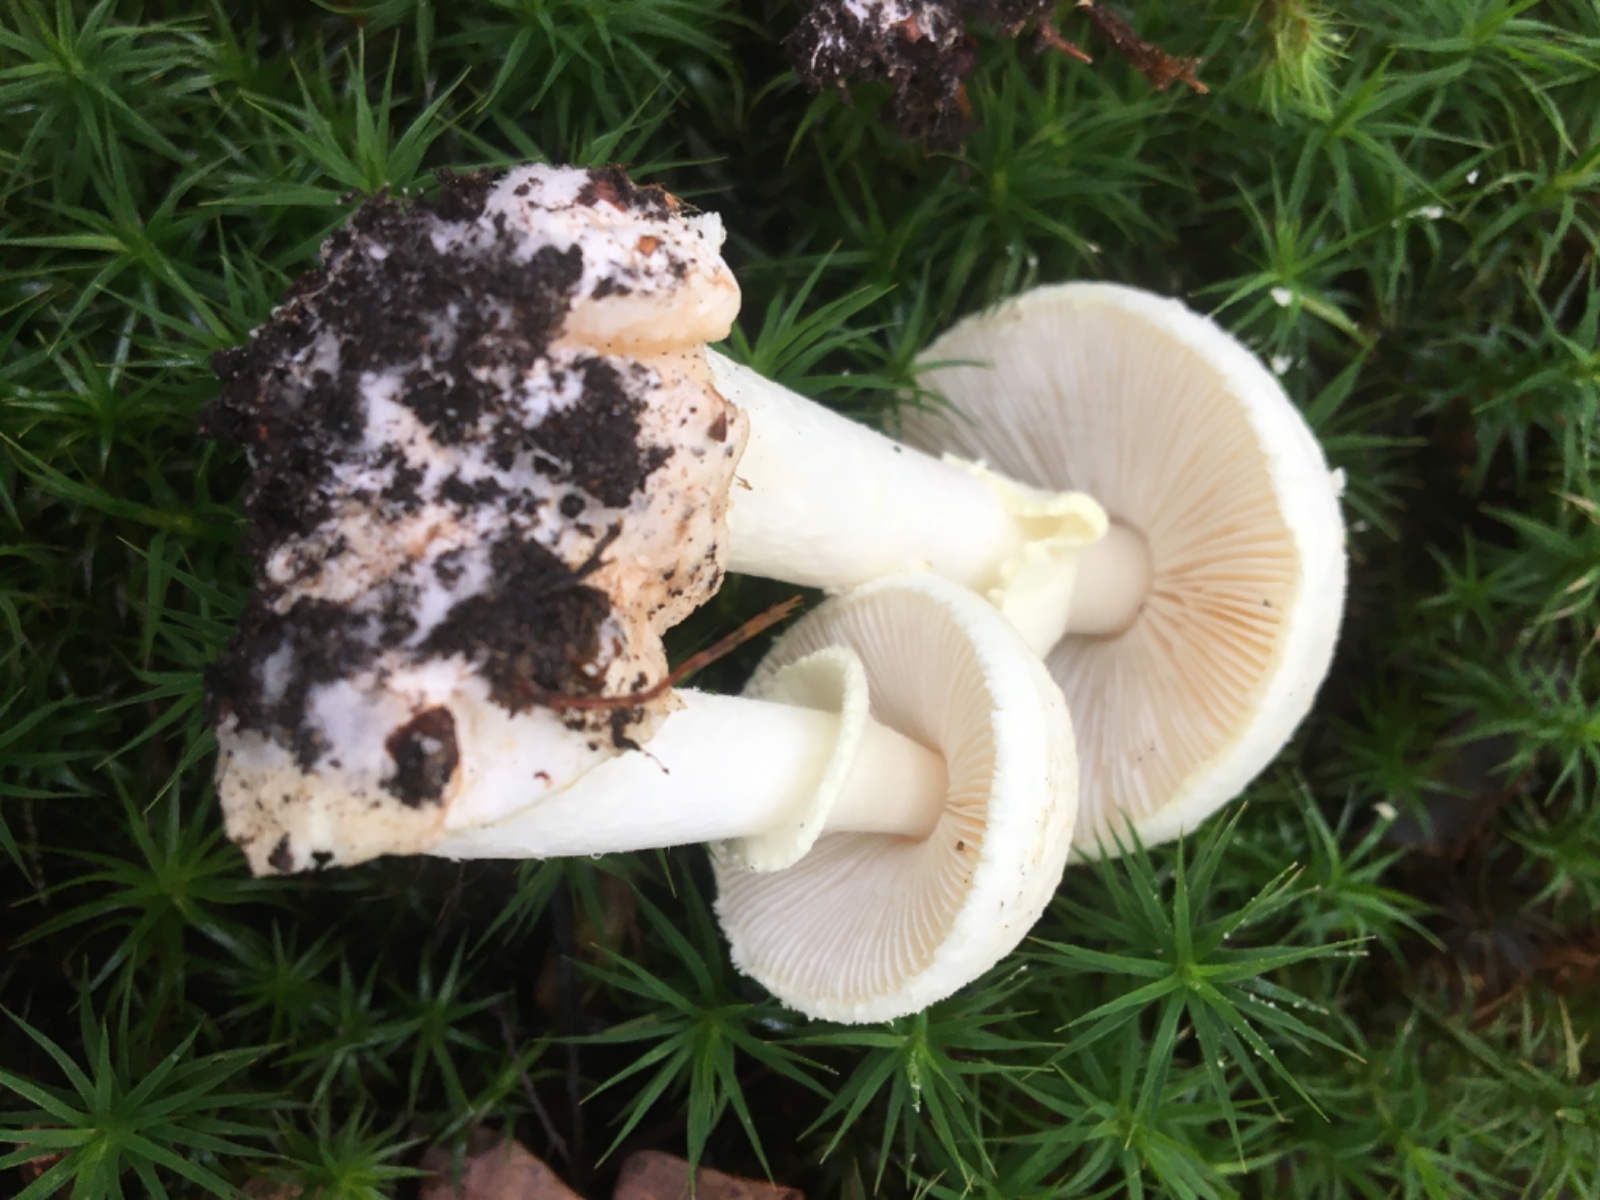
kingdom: Fungi
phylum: Basidiomycota
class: Agaricomycetes
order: Agaricales
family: Amanitaceae
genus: Amanita
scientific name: Amanita citrina
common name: kugleknoldet fluesvamp
